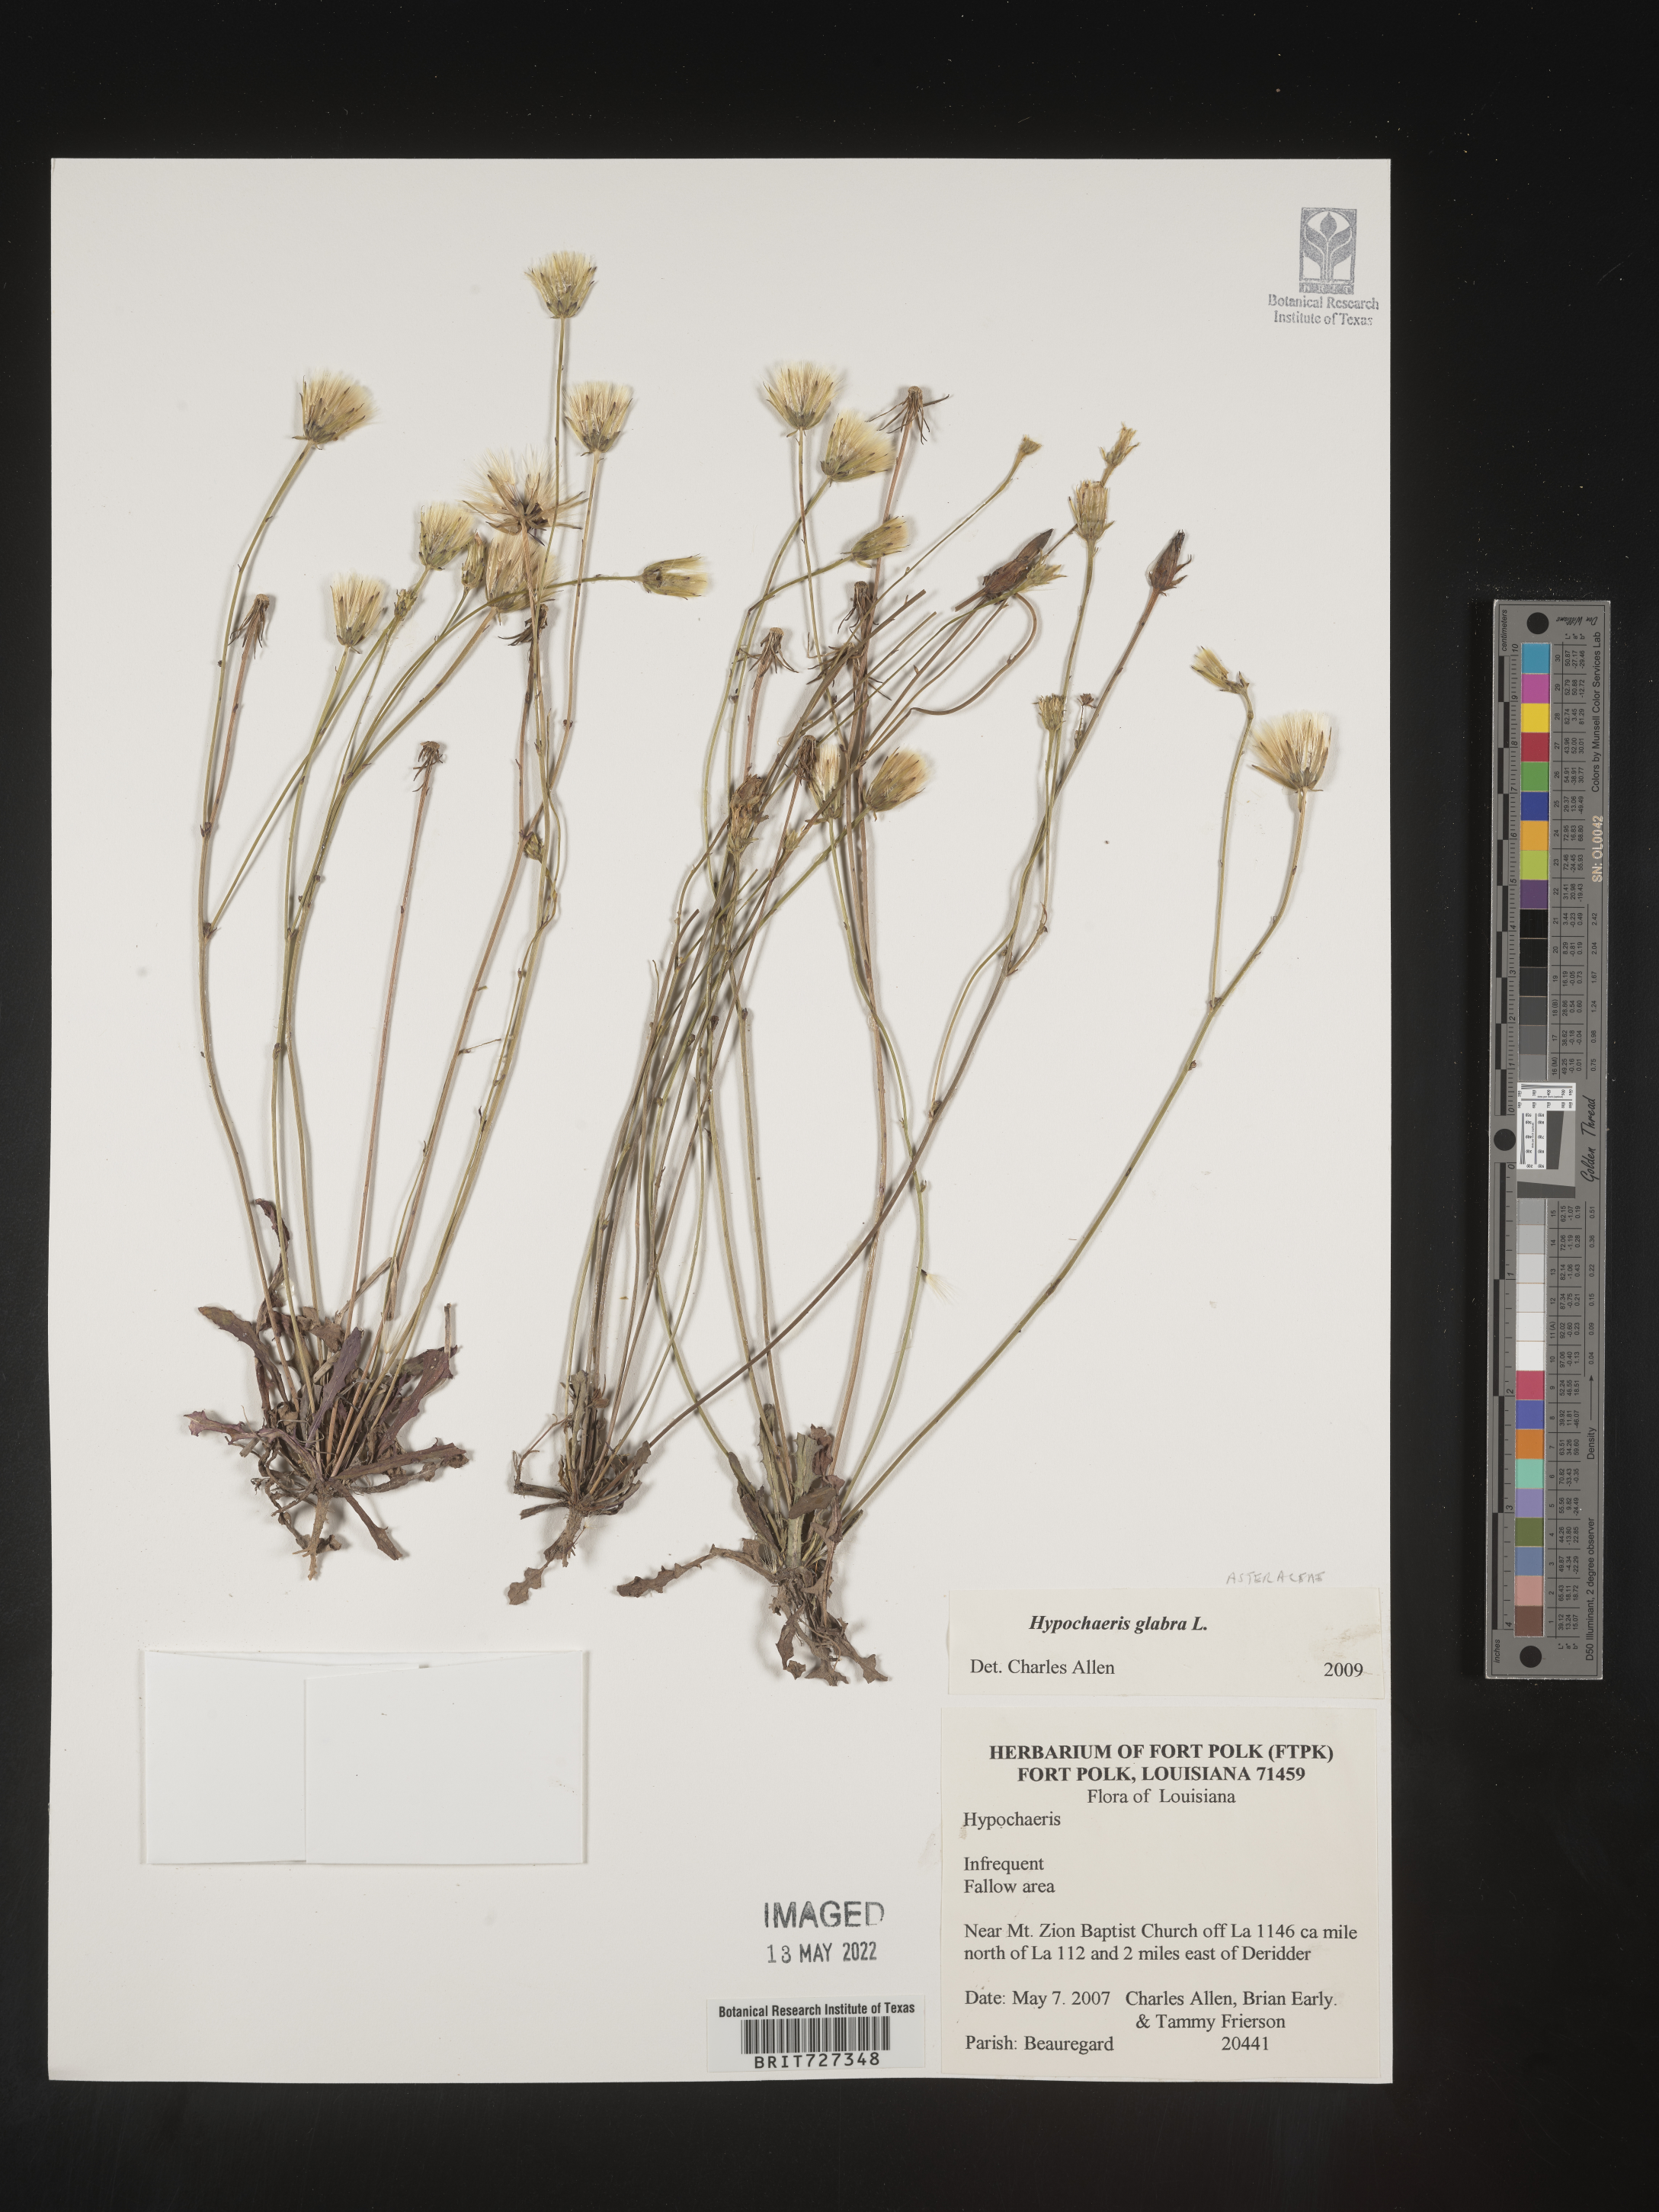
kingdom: Plantae
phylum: Tracheophyta
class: Magnoliopsida
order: Asterales
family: Asteraceae
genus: Hypochaeris
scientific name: Hypochaeris glabra
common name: Smooth catsear
